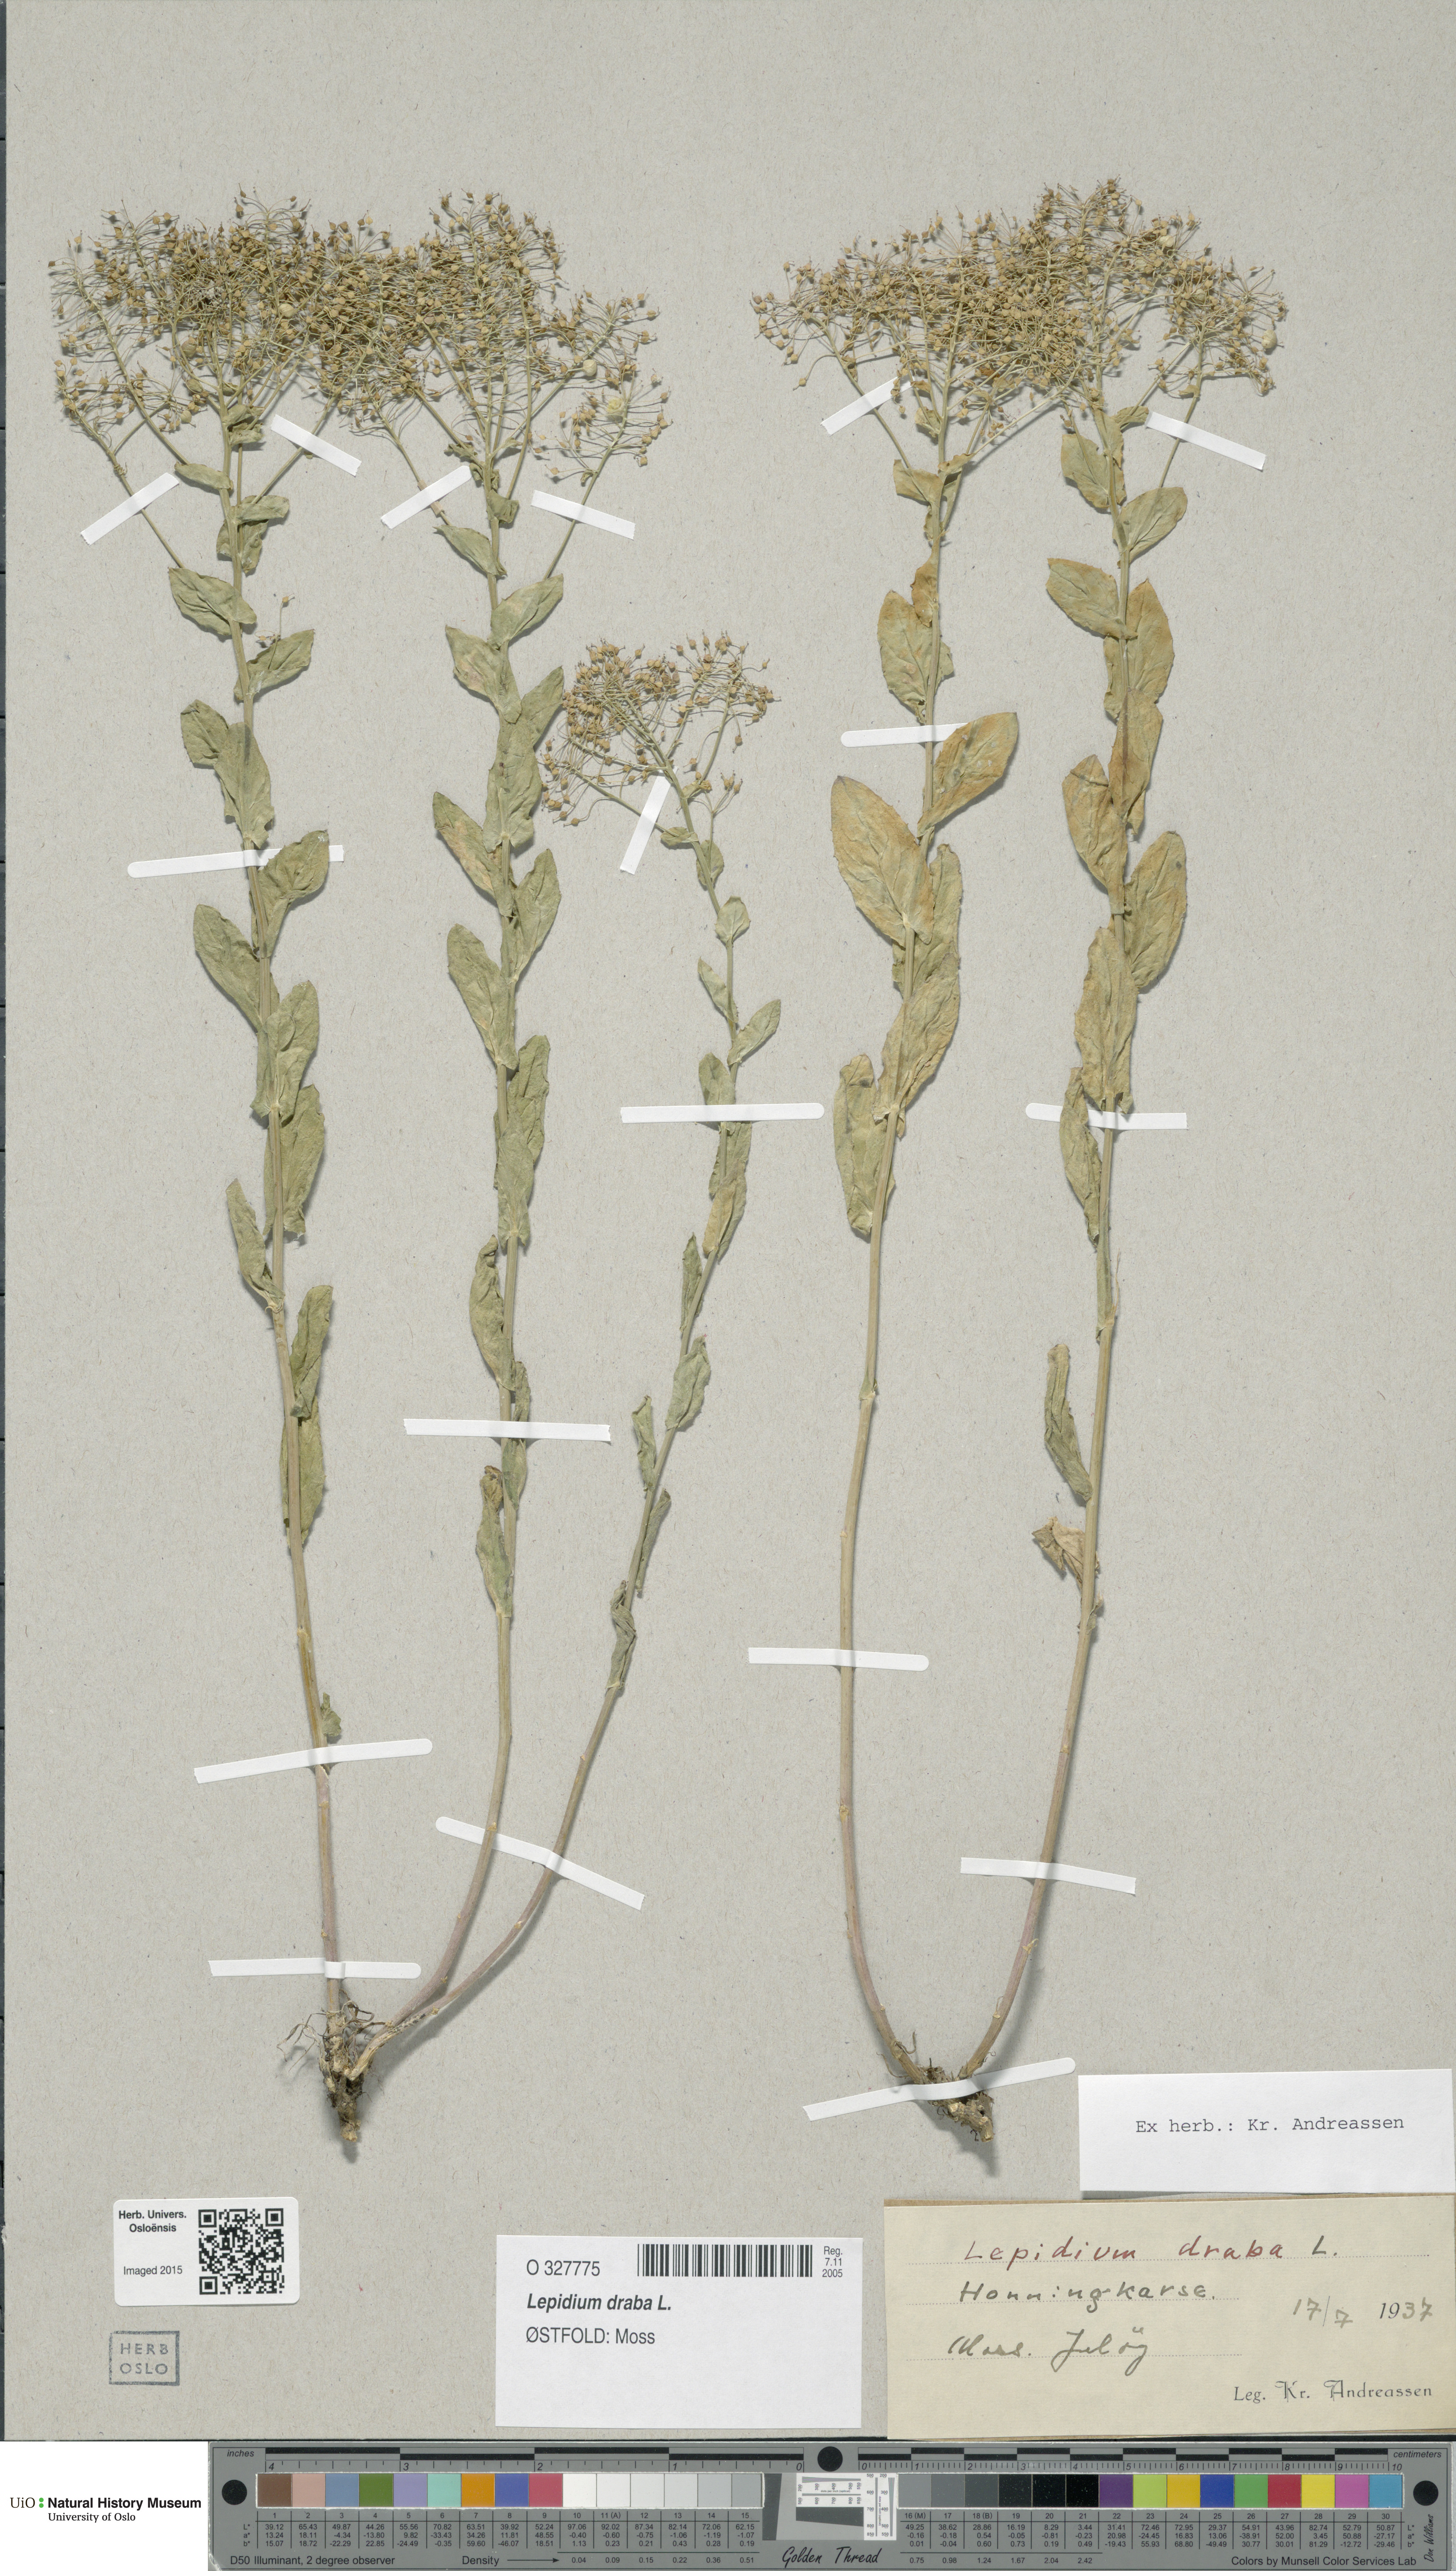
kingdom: Plantae
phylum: Tracheophyta
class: Magnoliopsida
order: Brassicales
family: Brassicaceae
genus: Lepidium
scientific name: Lepidium draba
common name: Hoary cress
